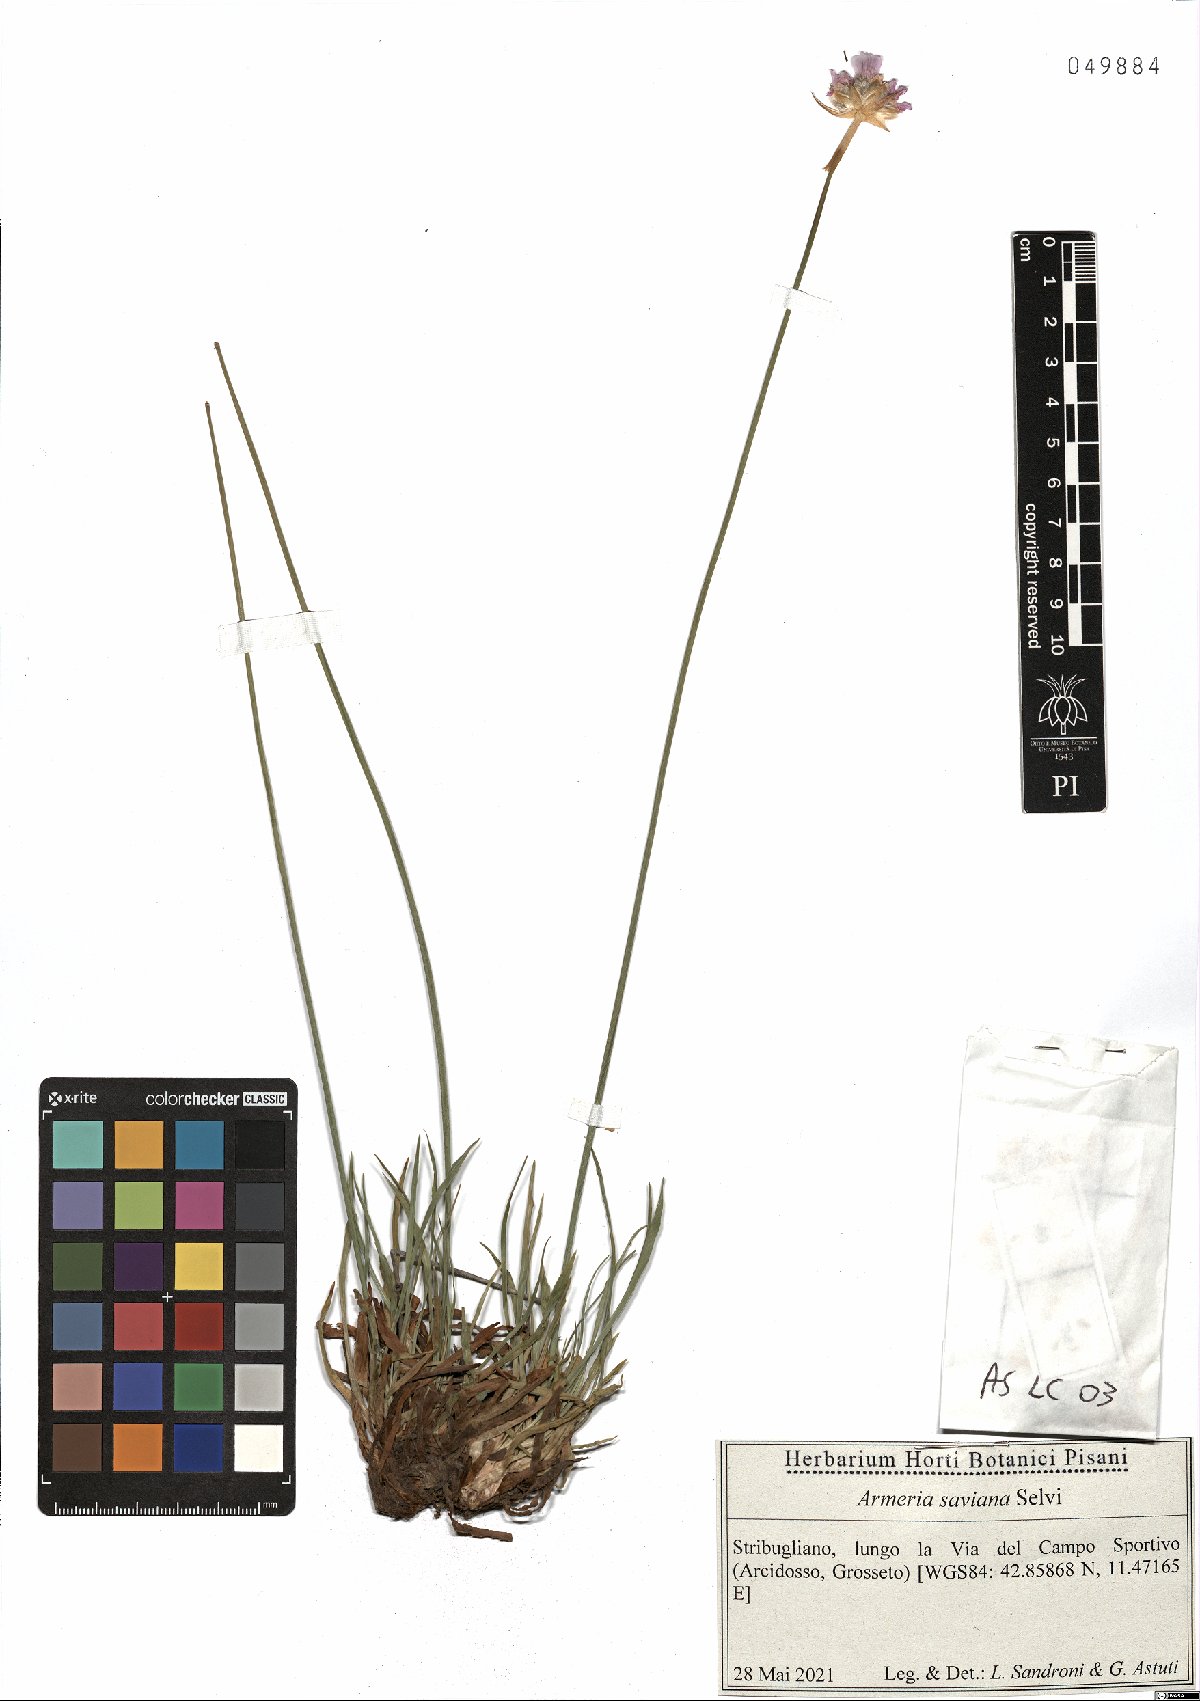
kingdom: Plantae
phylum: Tracheophyta
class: Magnoliopsida
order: Caryophyllales
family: Plumbaginaceae
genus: Armeria
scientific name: Armeria saviana
